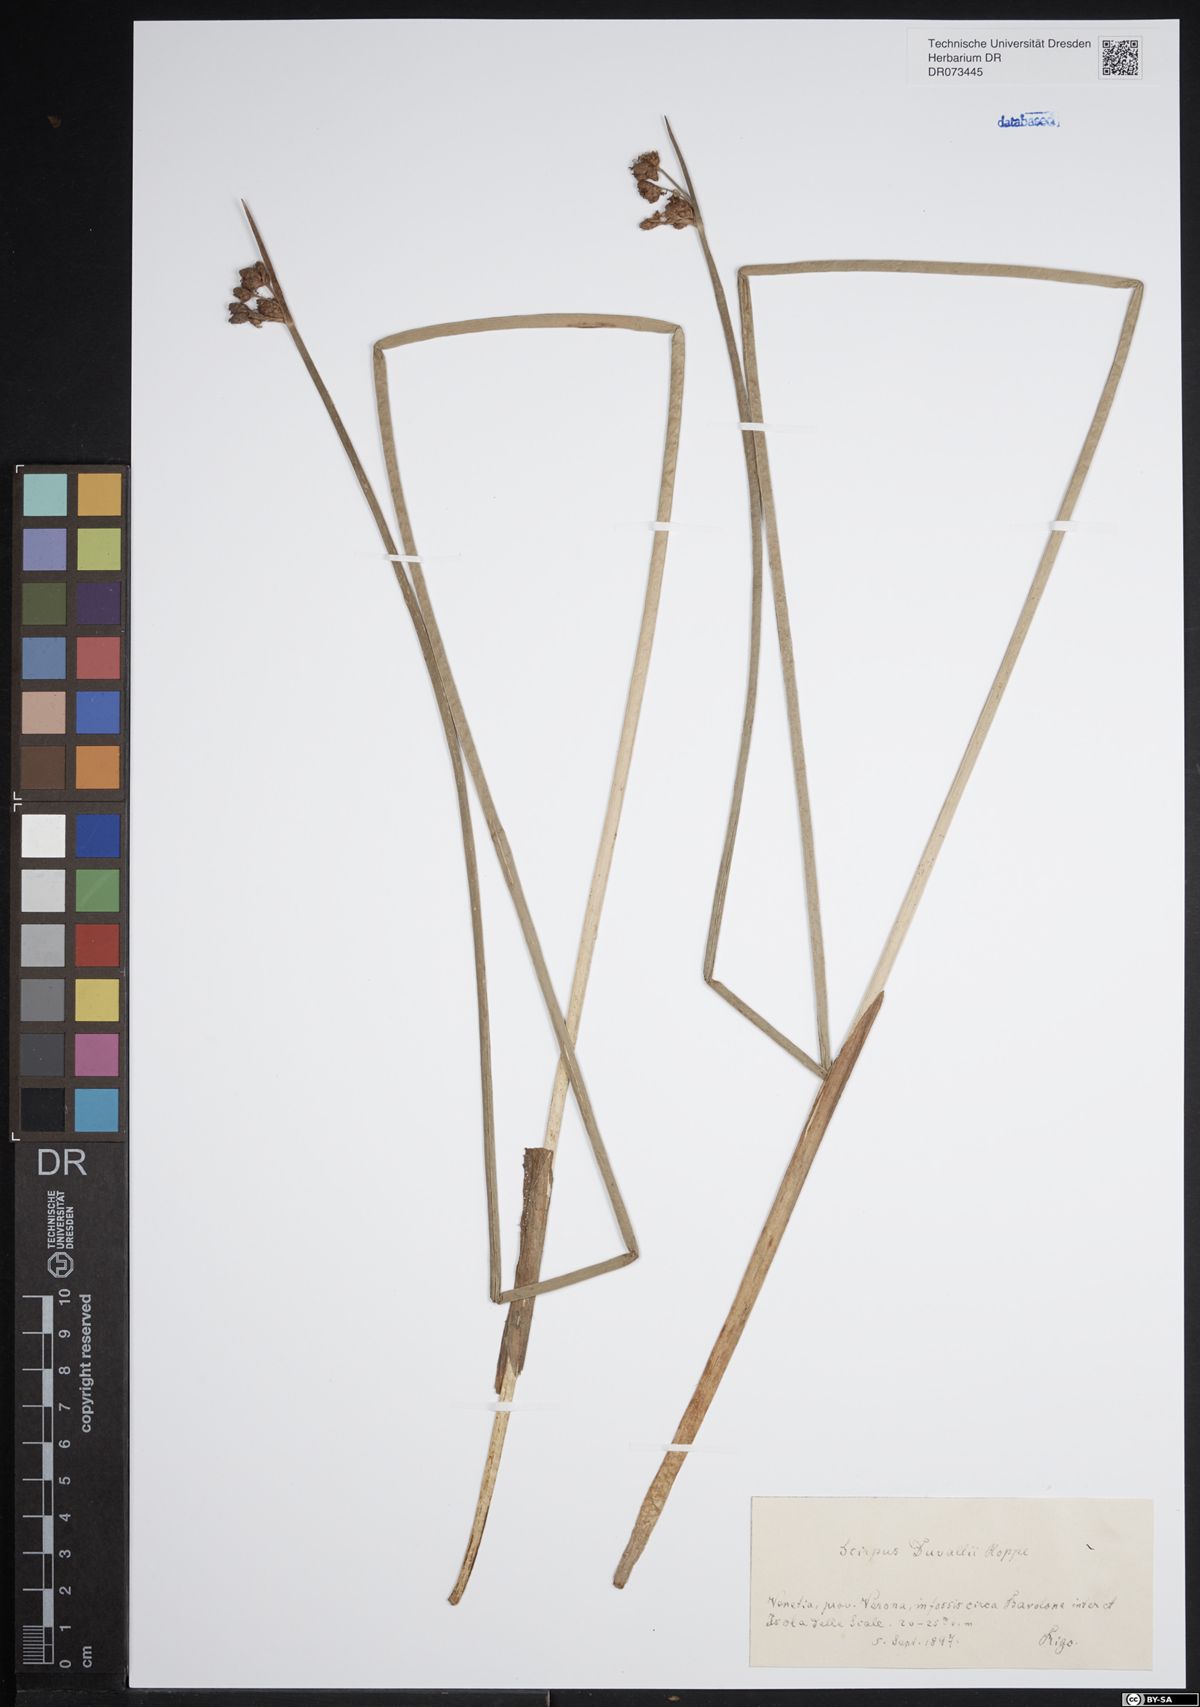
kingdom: Plantae
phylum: Tracheophyta
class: Liliopsida
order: Poales
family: Cyperaceae
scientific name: Cyperaceae
